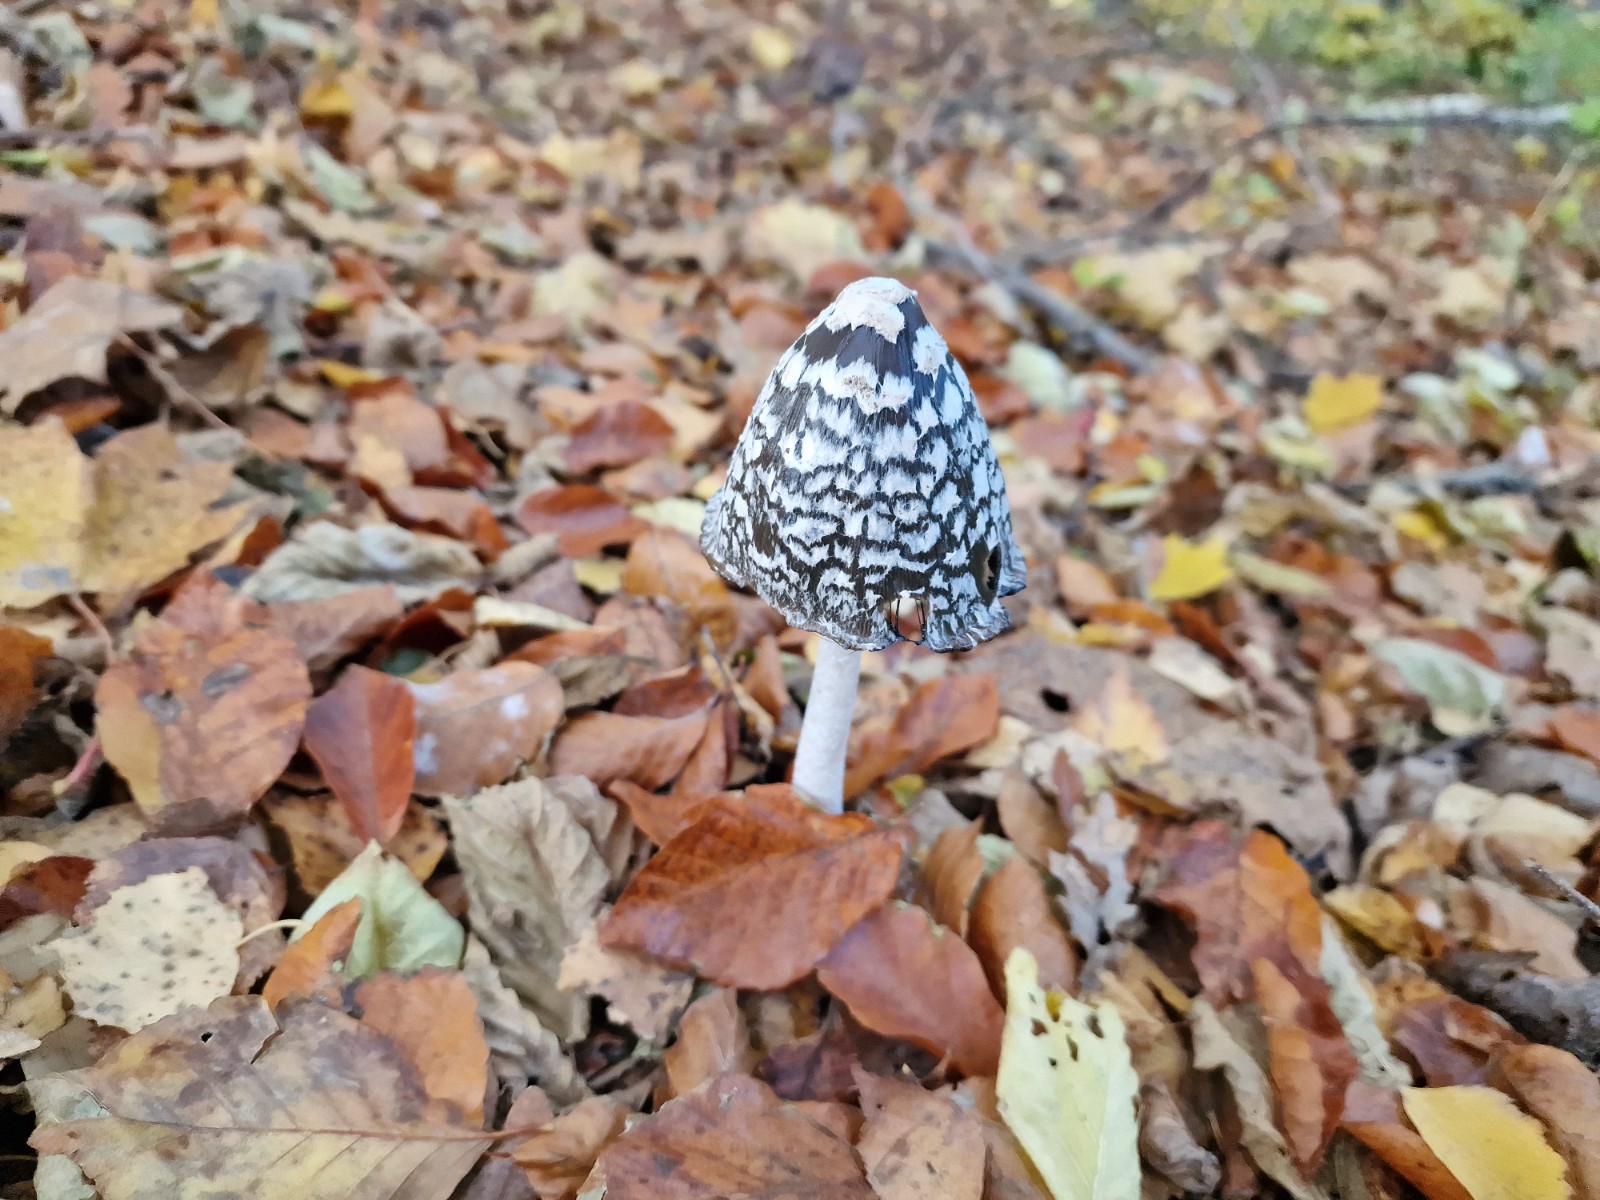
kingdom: Fungi
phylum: Basidiomycota
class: Agaricomycetes
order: Agaricales
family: Psathyrellaceae
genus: Coprinopsis
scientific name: Coprinopsis picacea
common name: skade-blækhat
